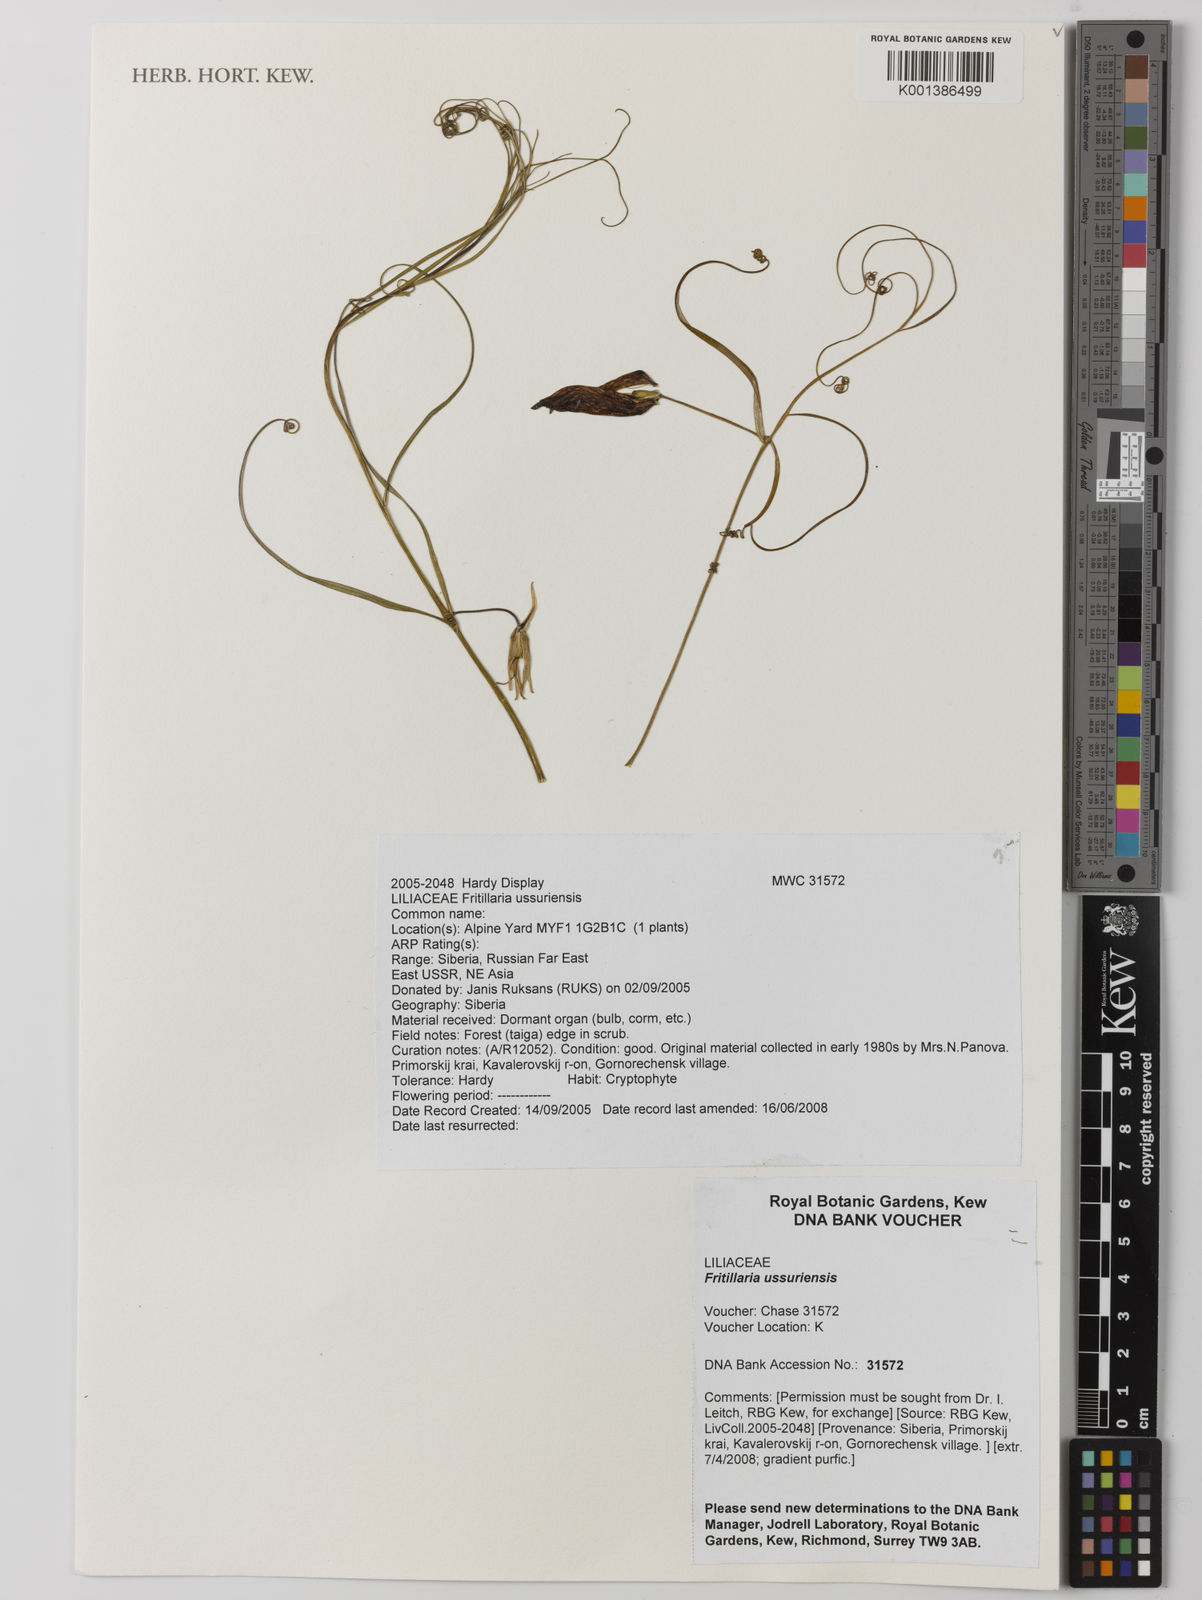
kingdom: Plantae
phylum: Tracheophyta
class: Liliopsida
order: Liliales
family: Liliaceae
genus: Fritillaria
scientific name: Fritillaria usuriensis
